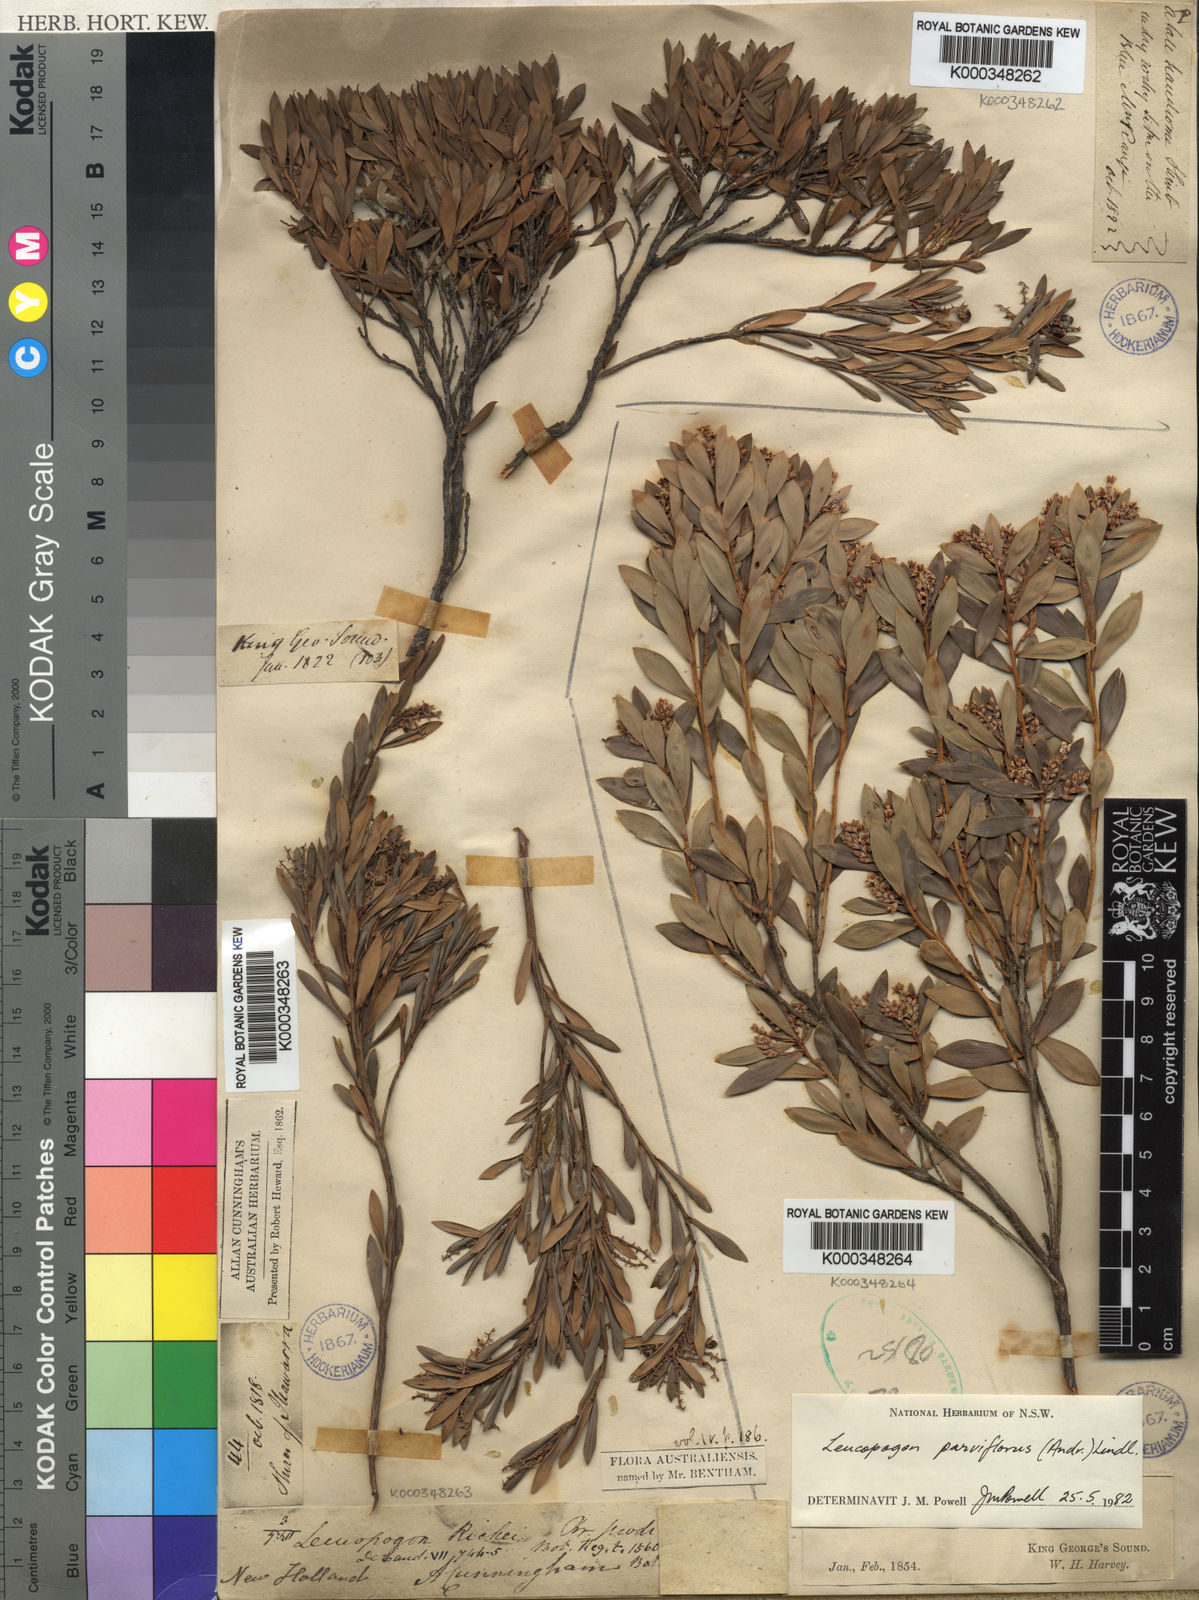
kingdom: Plantae
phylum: Tracheophyta
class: Magnoliopsida
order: Ericales
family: Ericaceae
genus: Leptecophylla
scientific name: Leptecophylla parvifolia
